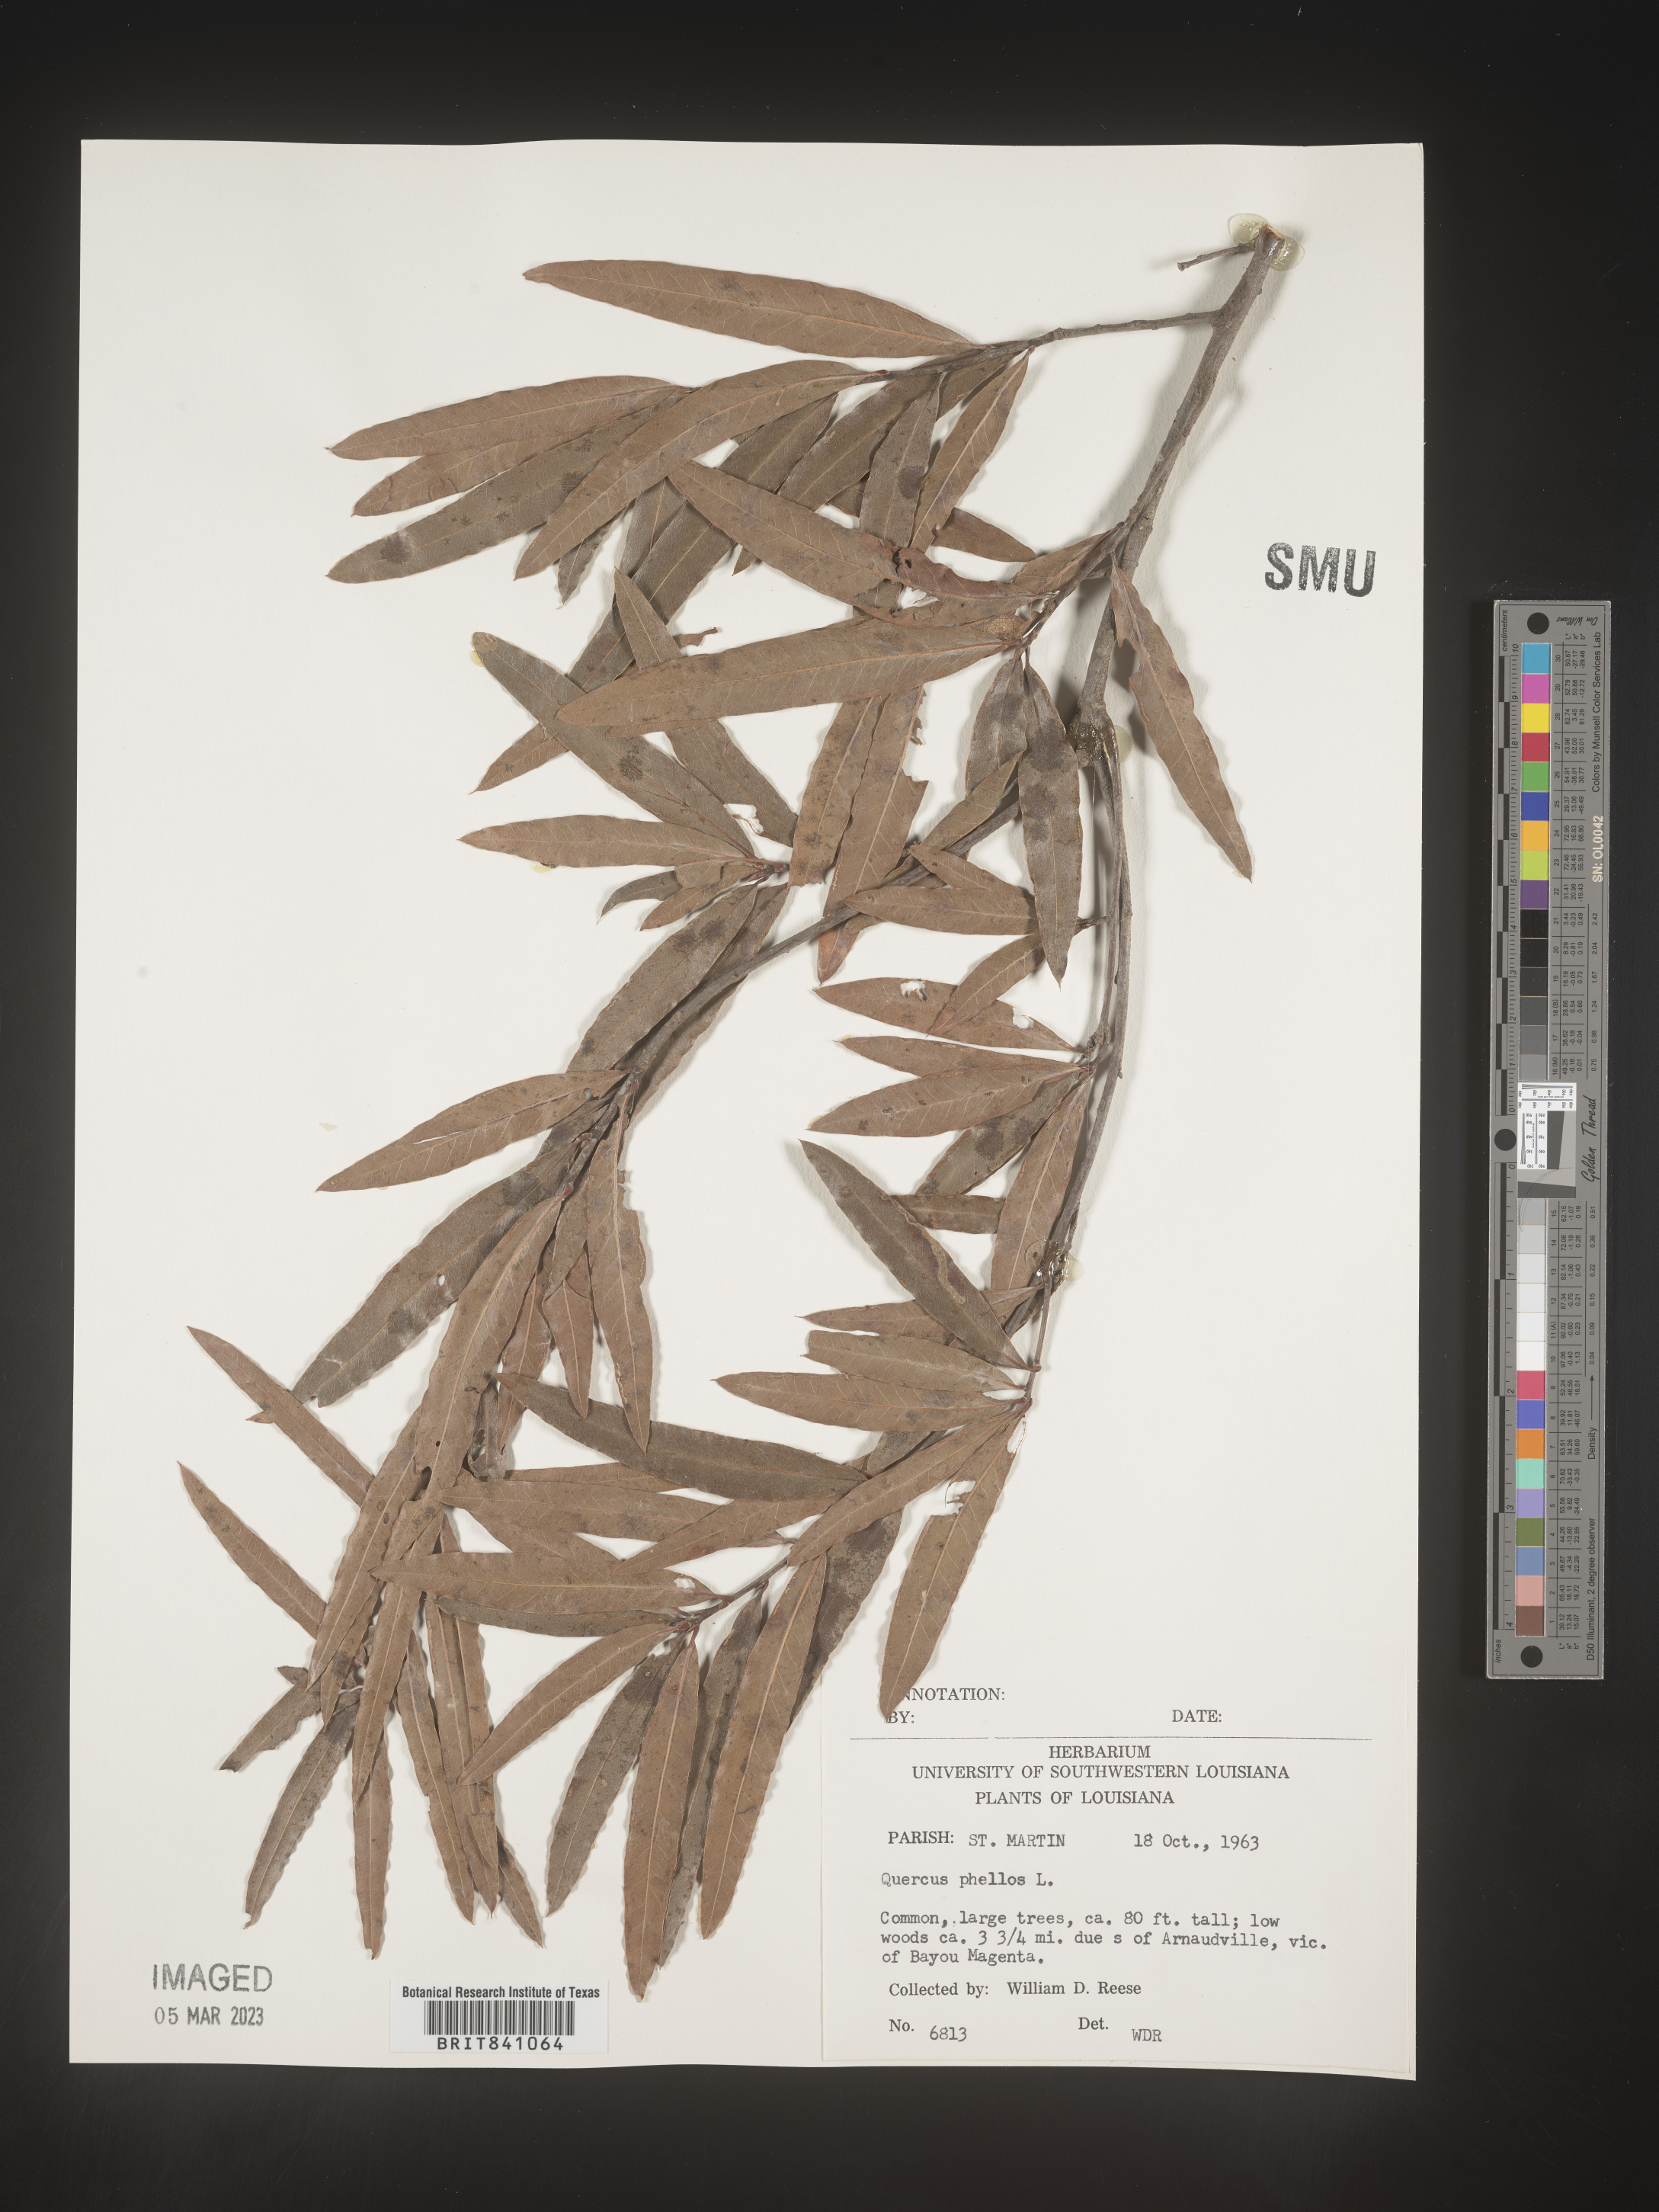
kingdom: Plantae
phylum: Tracheophyta
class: Magnoliopsida
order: Fagales
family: Fagaceae
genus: Quercus
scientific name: Quercus phellos
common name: Willow oak
